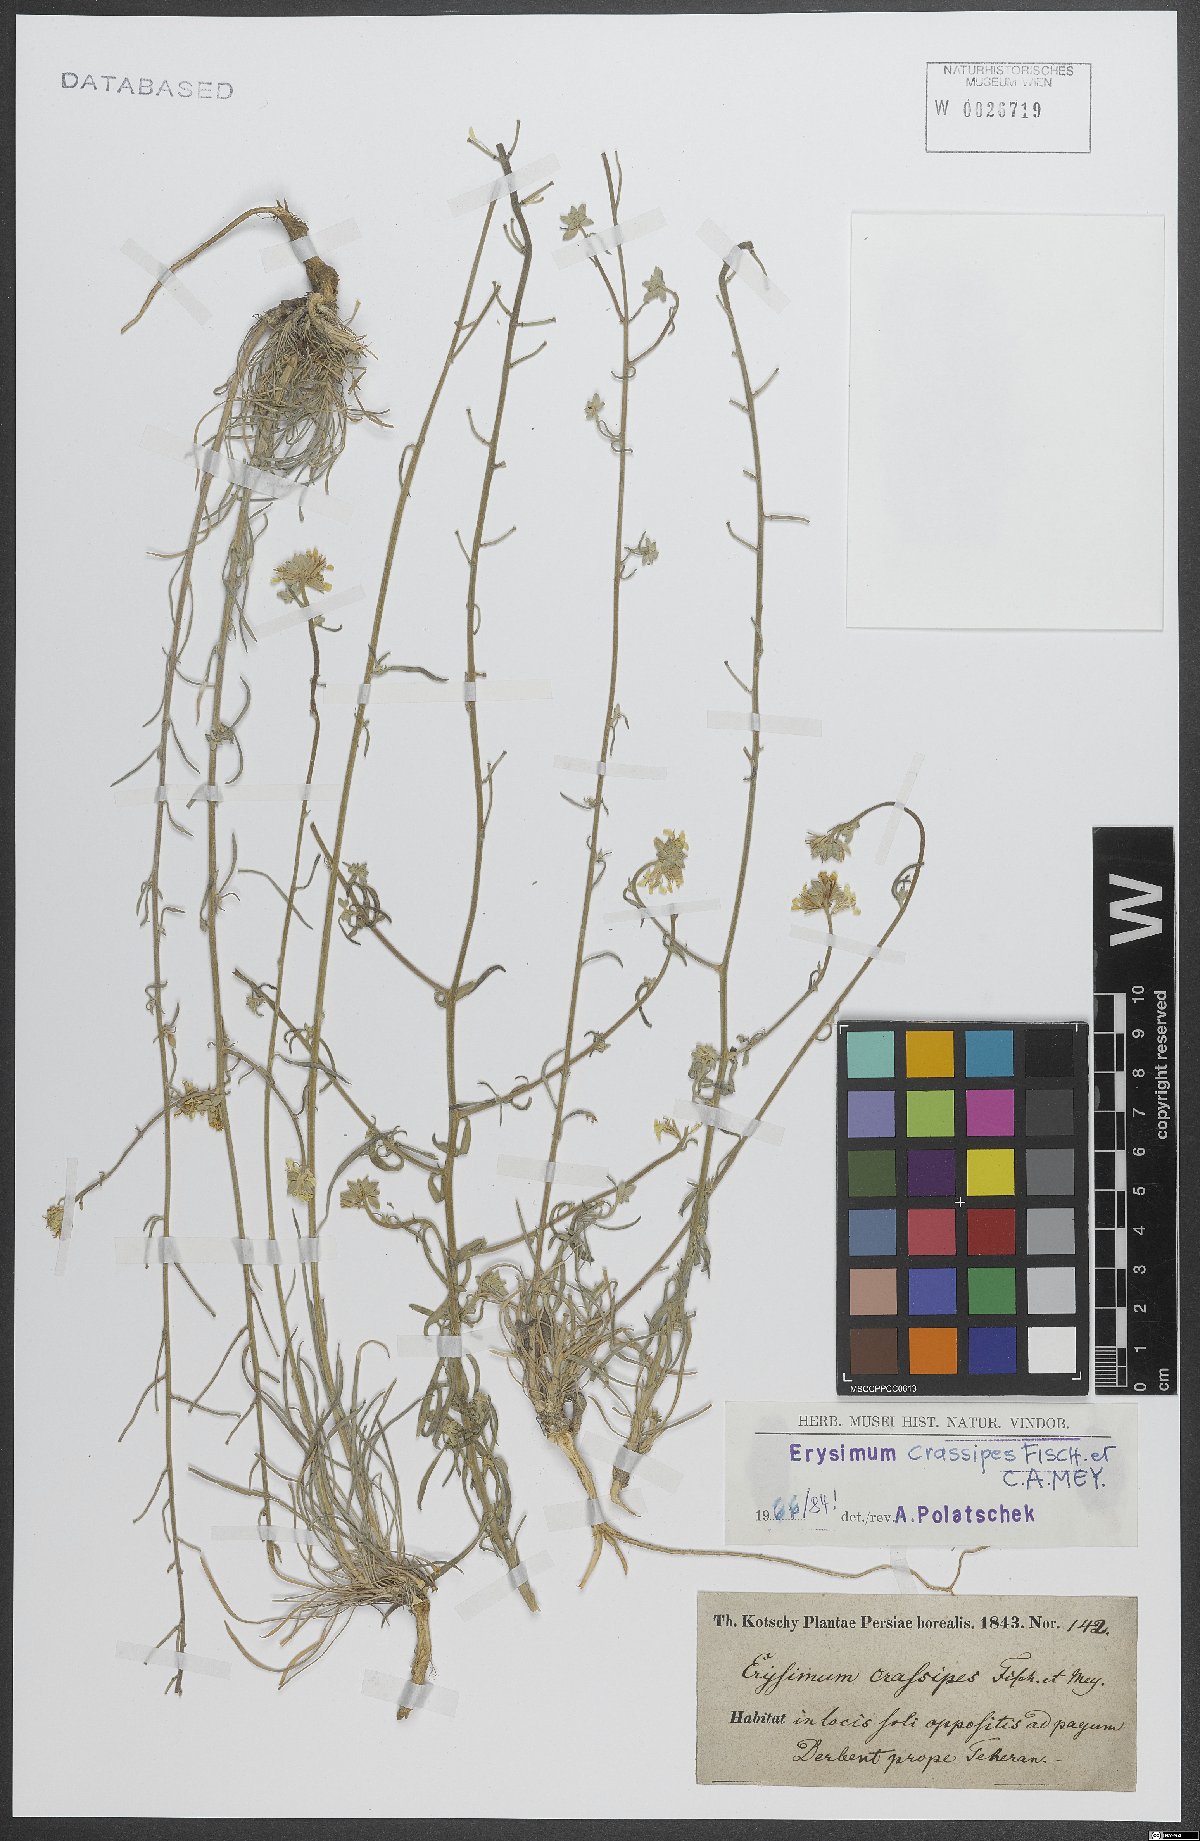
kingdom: Plantae
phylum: Tracheophyta
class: Magnoliopsida
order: Brassicales
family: Brassicaceae
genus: Erysimum
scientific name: Erysimum crassipes
